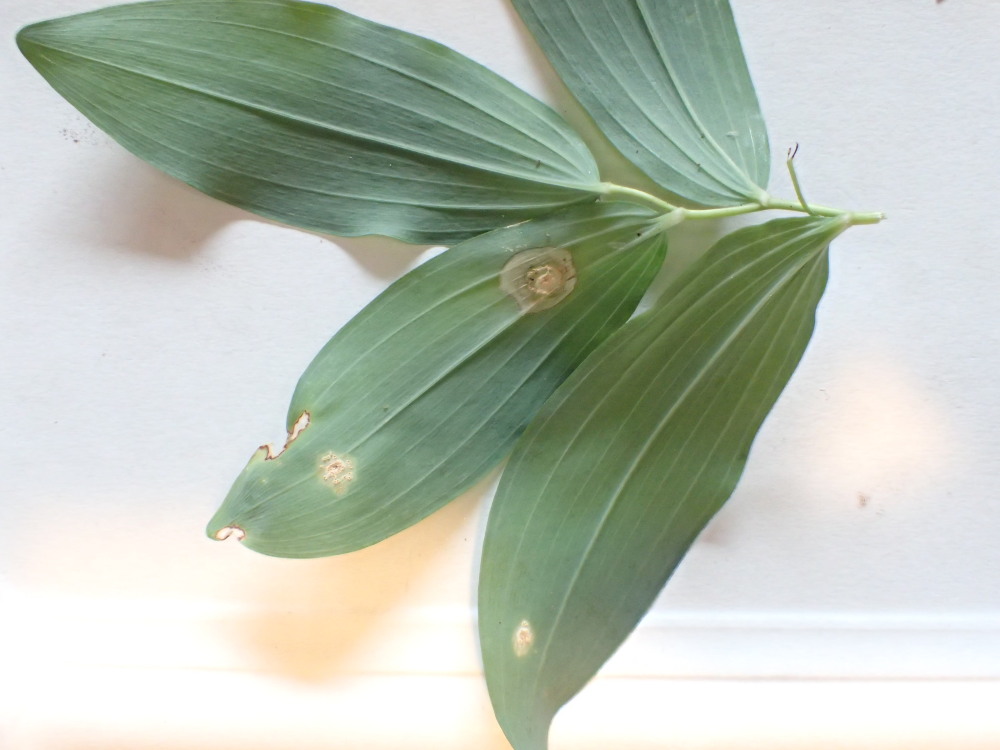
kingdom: Fungi
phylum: Basidiomycota
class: Pucciniomycetes
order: Pucciniales
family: Pucciniaceae
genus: Puccinia
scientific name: Puccinia sessilis
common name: Arum rust
